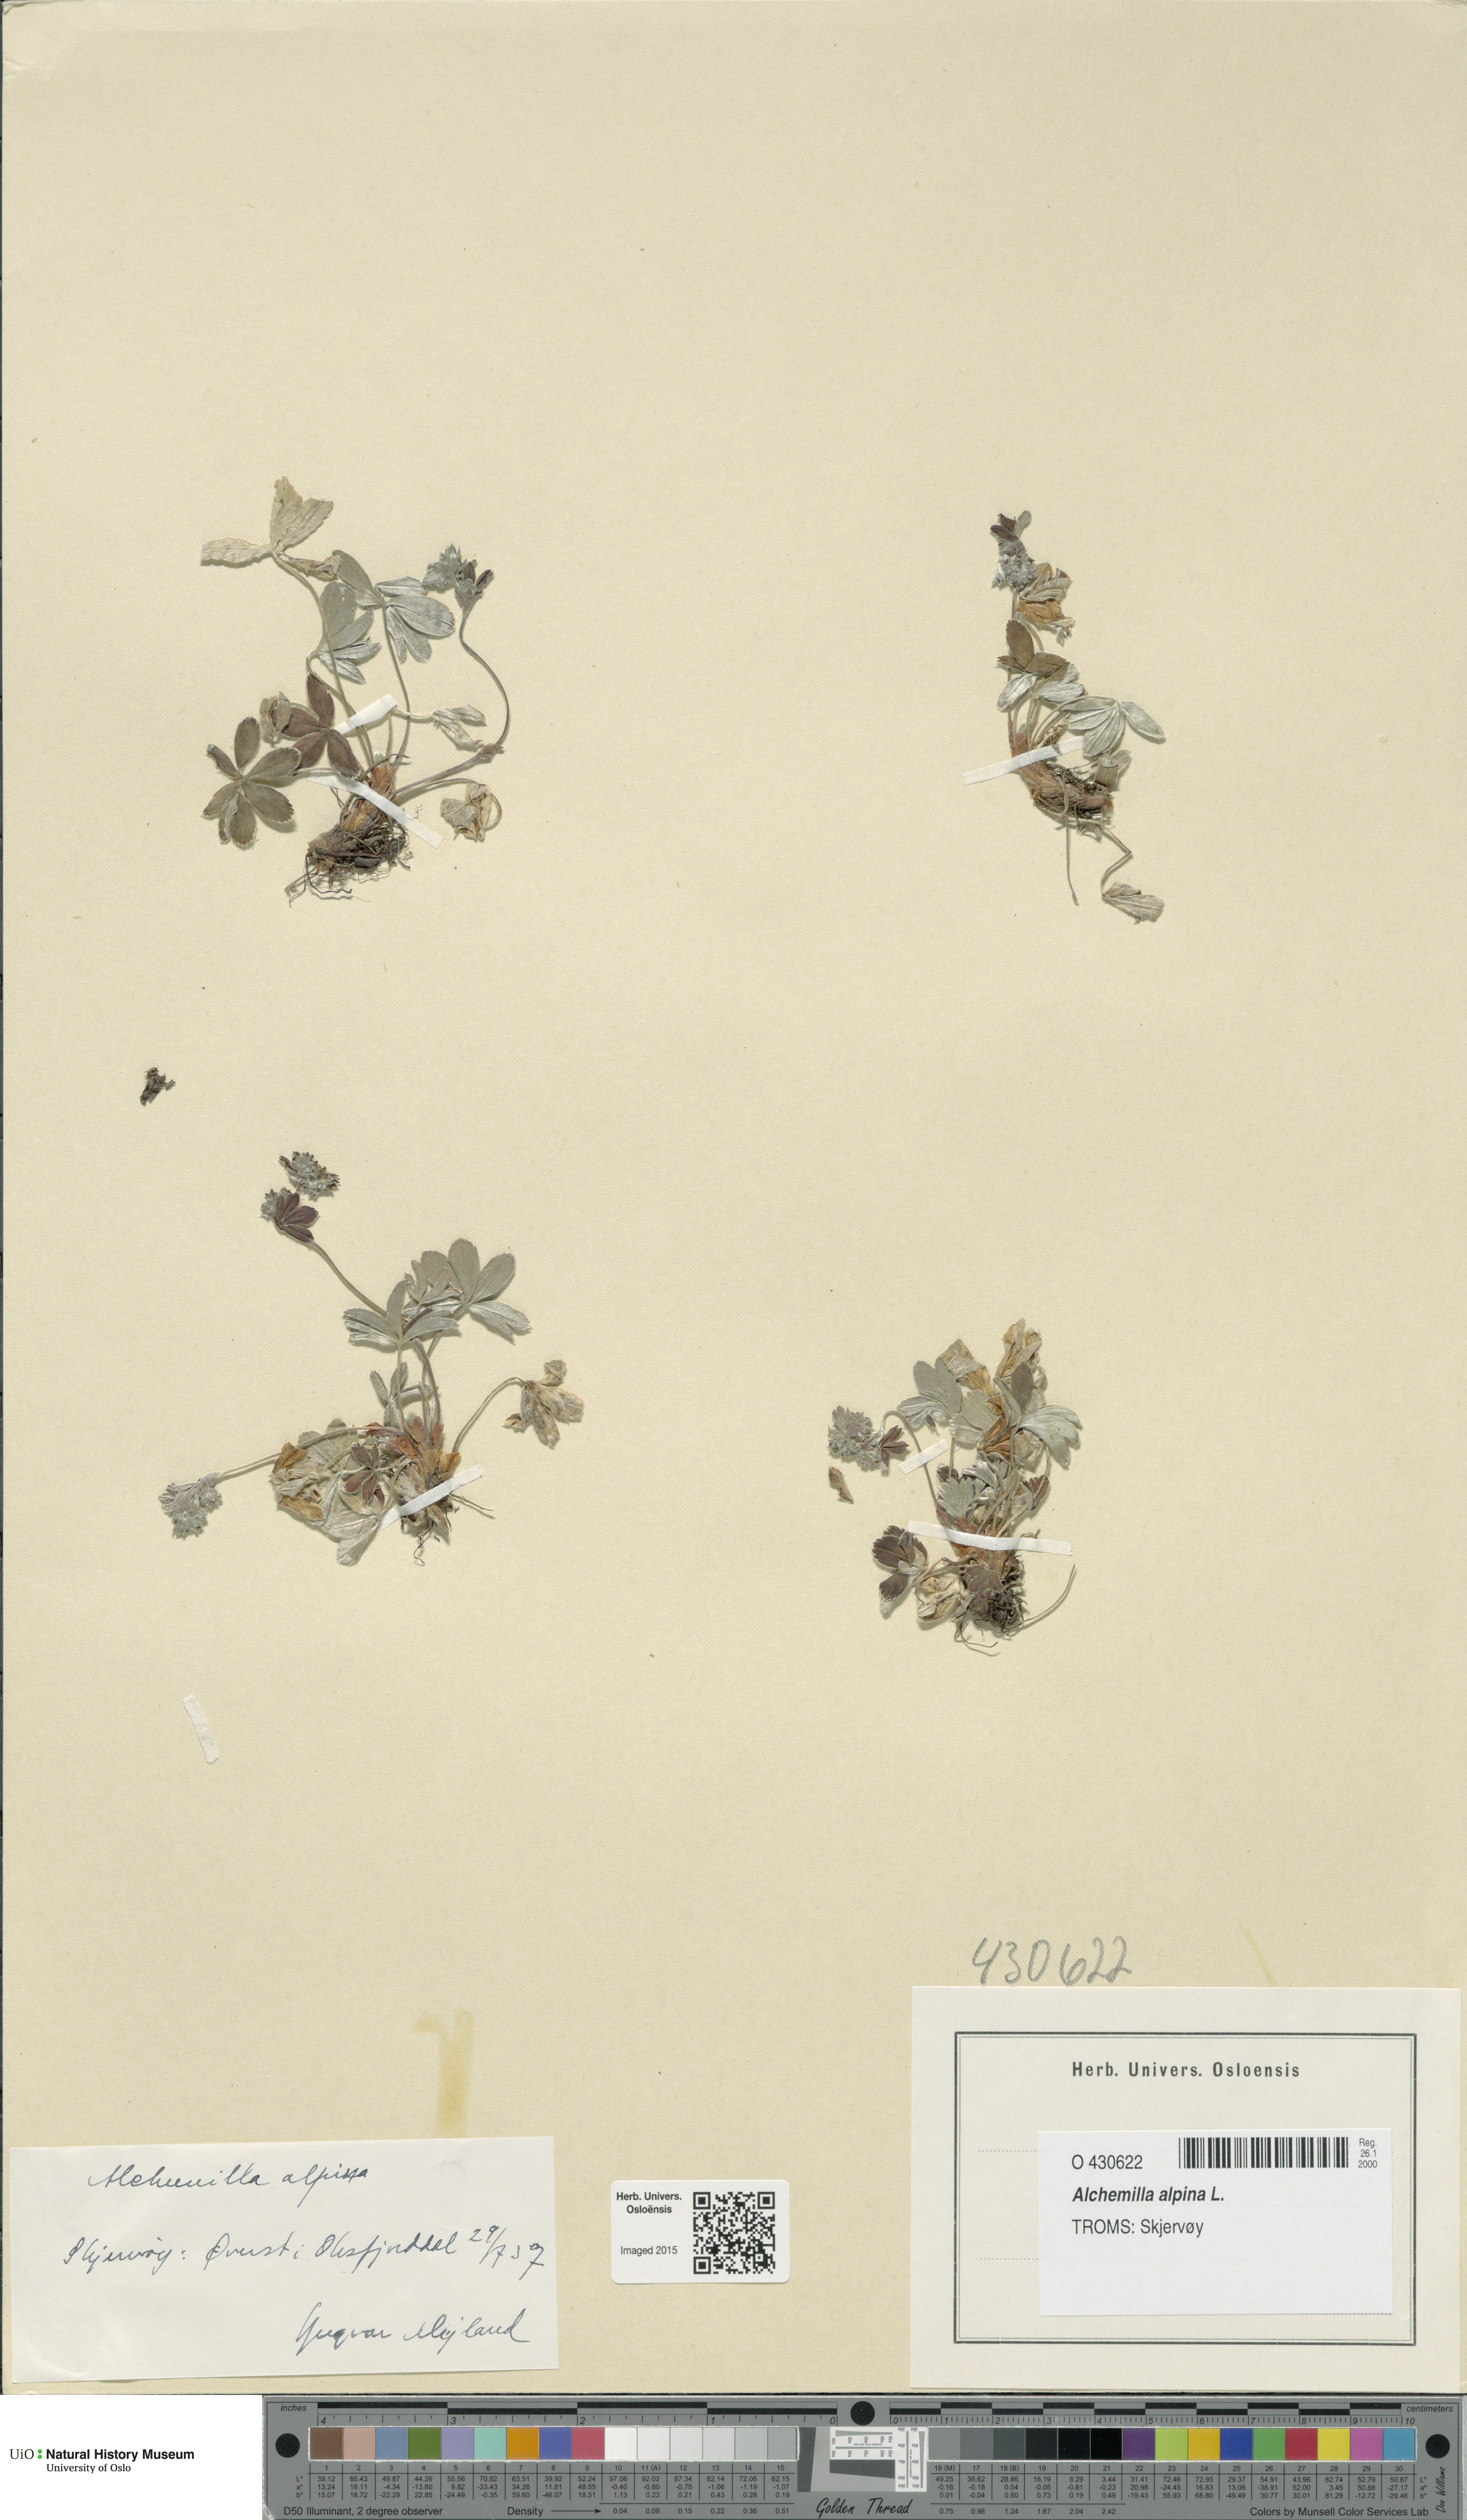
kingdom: Plantae
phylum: Tracheophyta
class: Magnoliopsida
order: Rosales
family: Rosaceae
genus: Alchemilla
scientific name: Alchemilla alpina
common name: Alpine lady's-mantle
